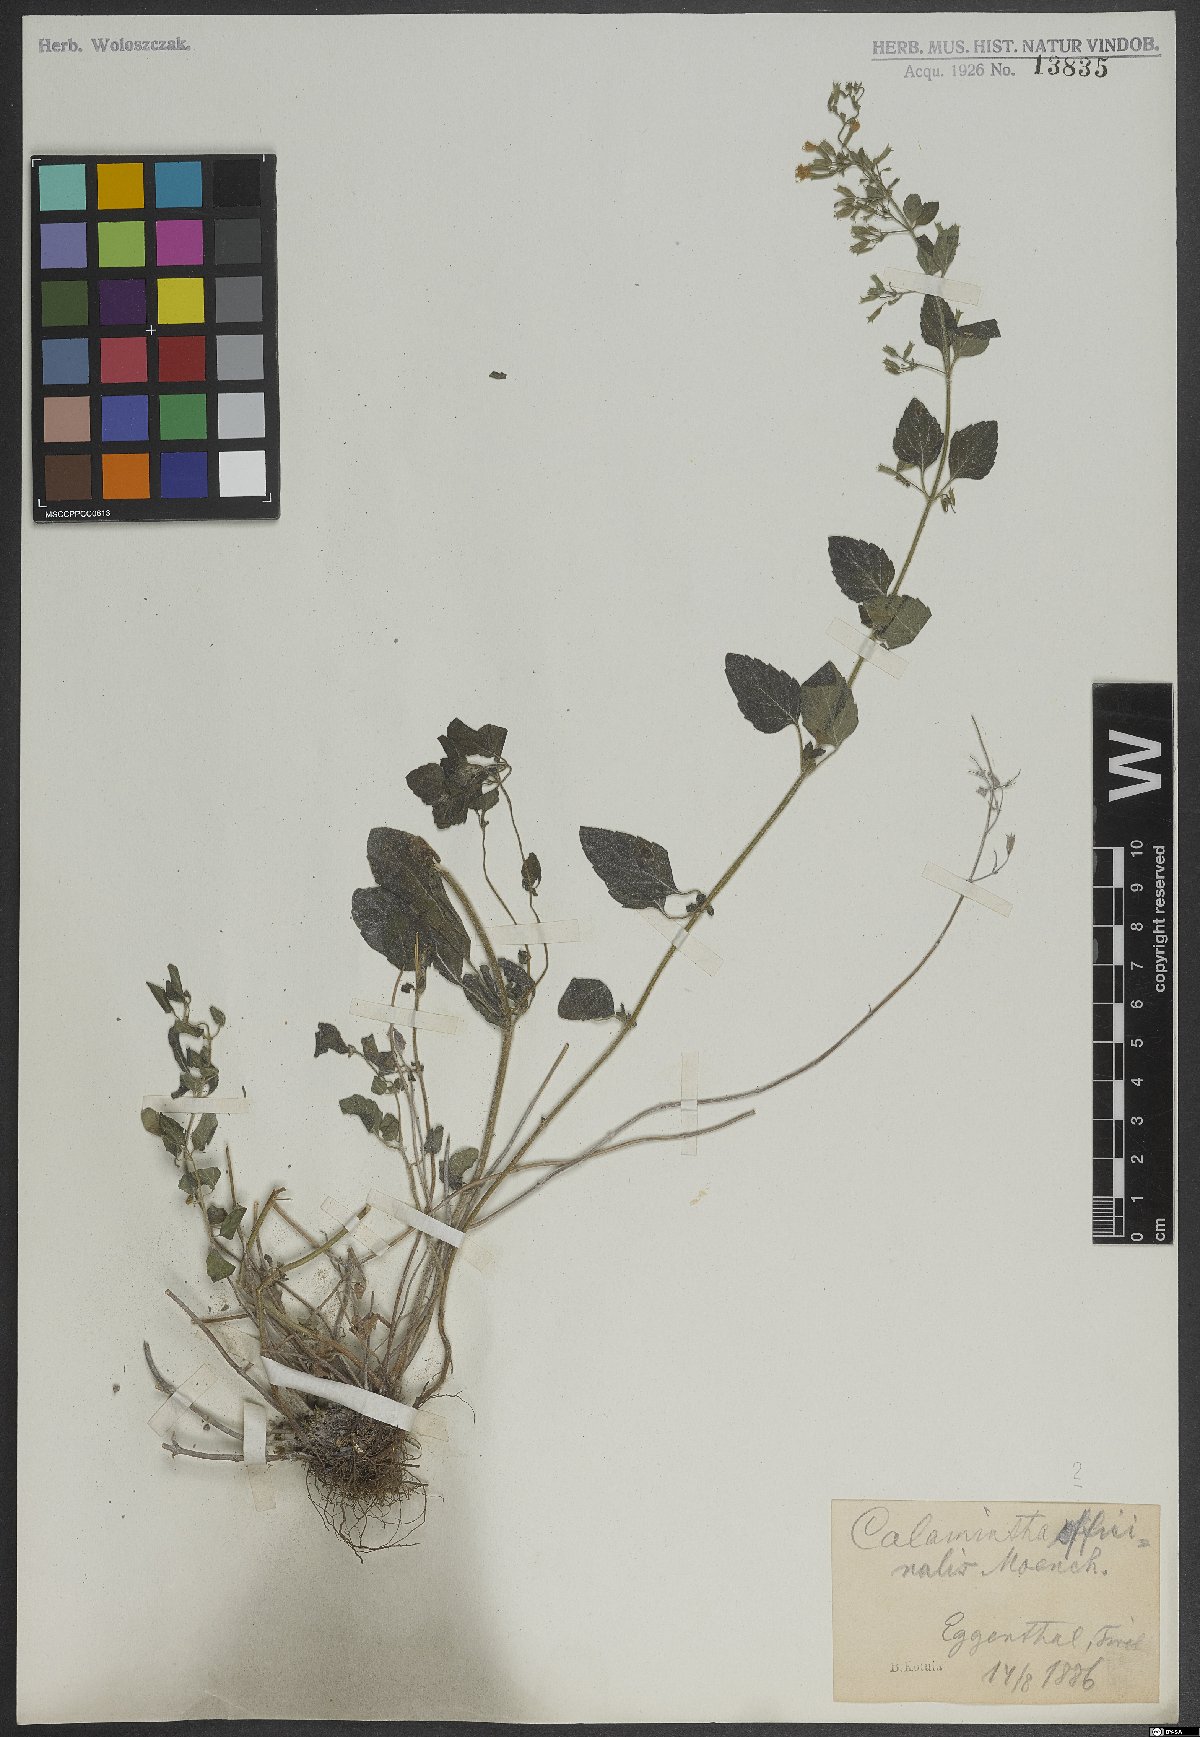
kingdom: Plantae
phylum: Tracheophyta
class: Magnoliopsida
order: Lamiales
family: Lamiaceae
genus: Clinopodium
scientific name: Clinopodium nepeta
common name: Lesser calamint
